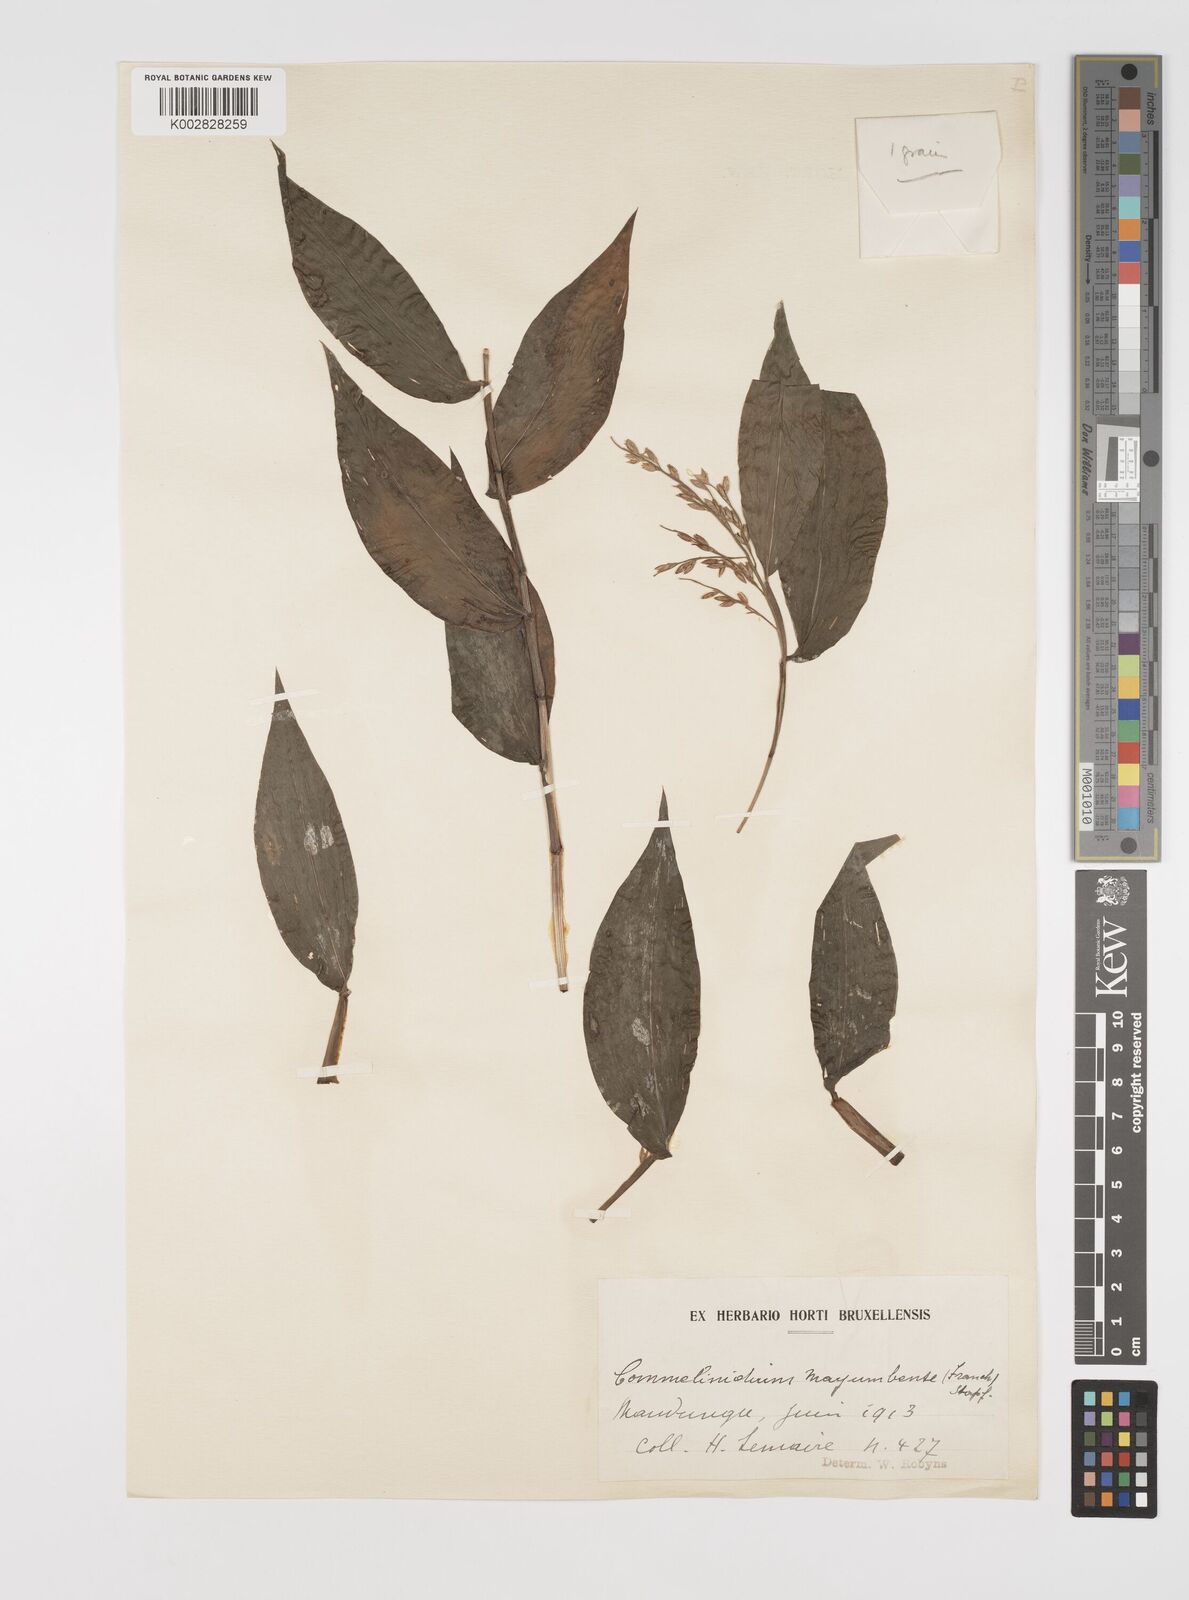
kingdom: Plantae
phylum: Tracheophyta
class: Liliopsida
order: Poales
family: Poaceae
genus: Acroceras
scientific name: Acroceras gabunense
